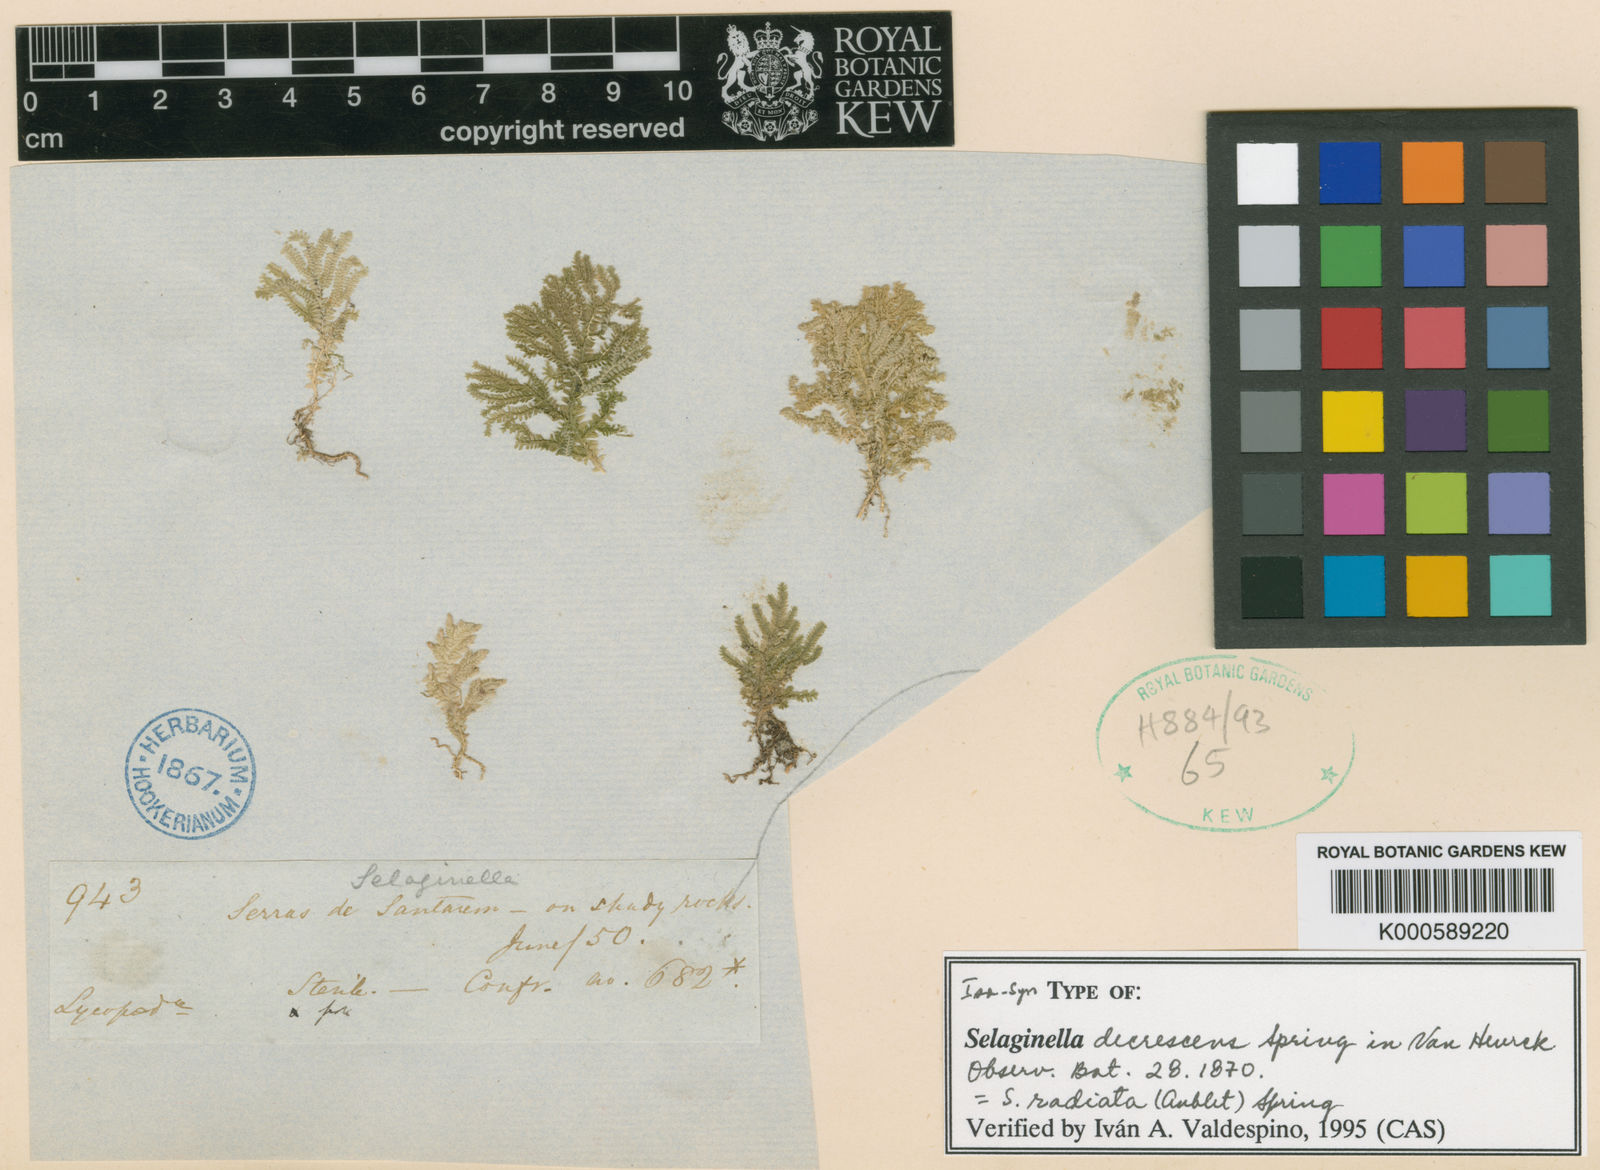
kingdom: Plantae
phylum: Tracheophyta
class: Lycopodiopsida
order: Selaginellales
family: Selaginellaceae
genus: Selaginella
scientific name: Selaginella radiata
